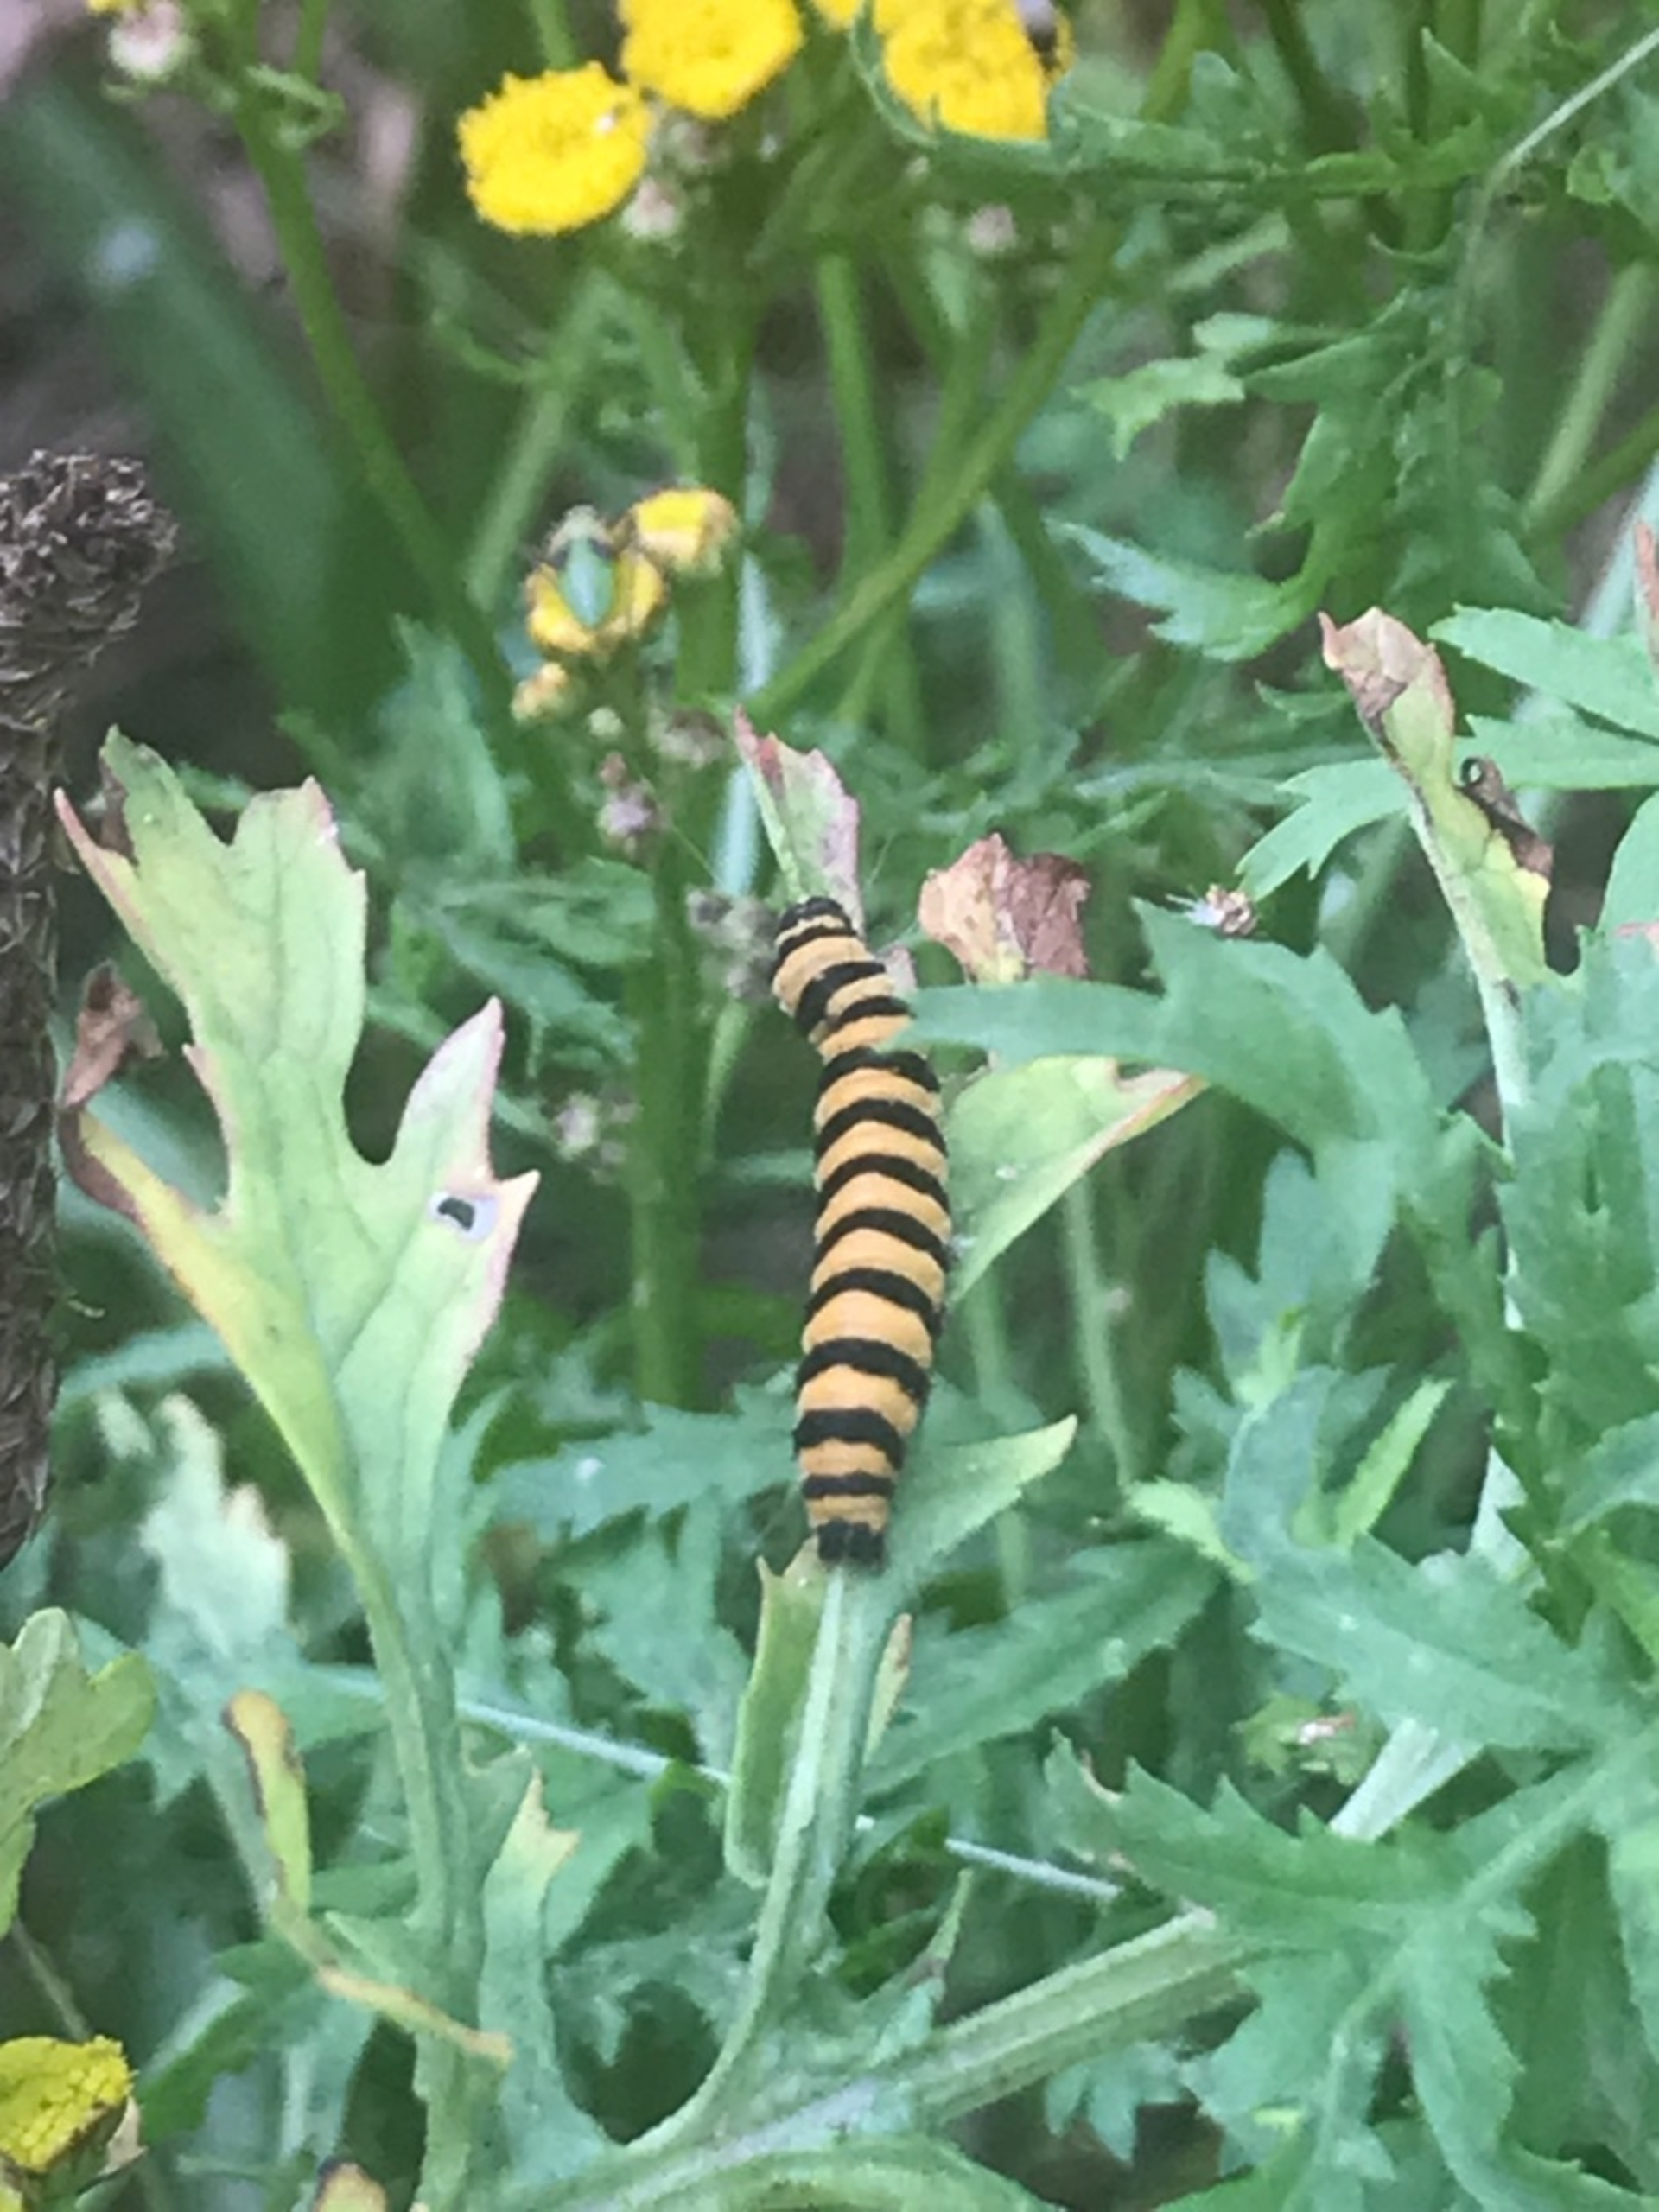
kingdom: Animalia
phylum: Arthropoda
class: Insecta
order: Lepidoptera
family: Erebidae
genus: Tyria
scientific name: Tyria jacobaeae
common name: Blodplet
